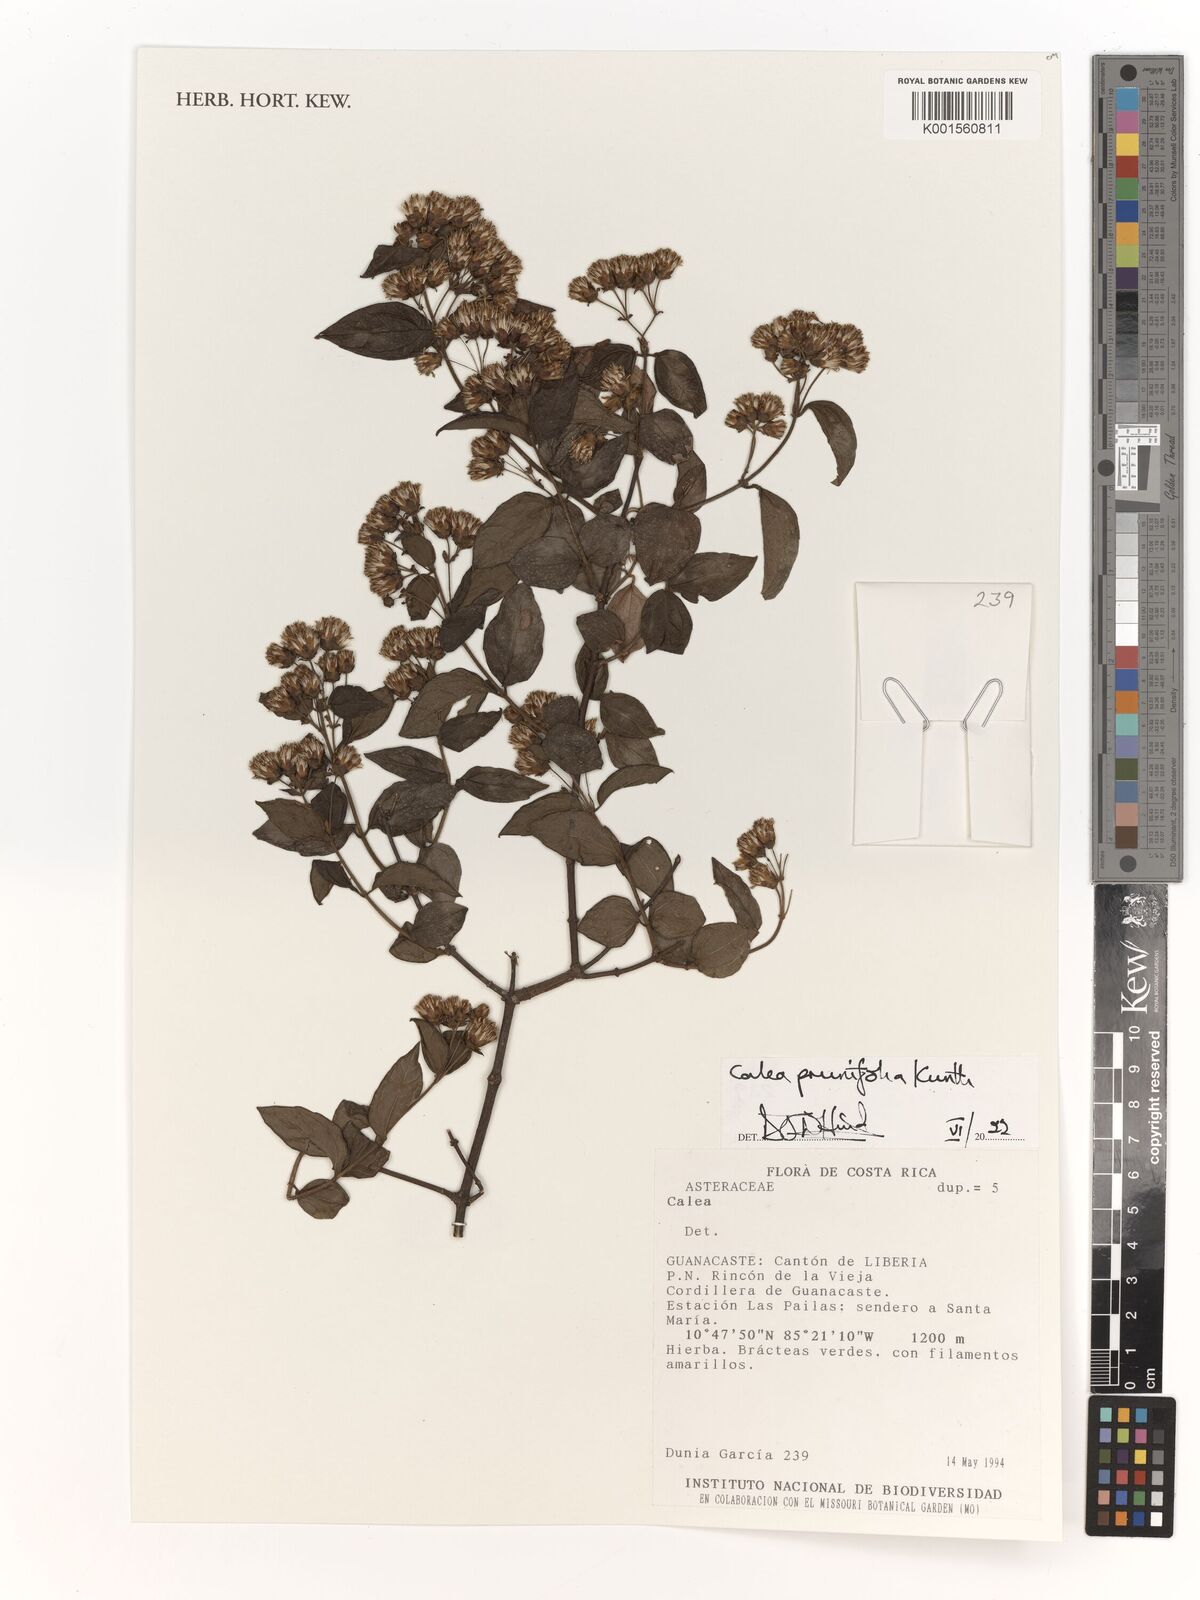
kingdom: Plantae
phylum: Tracheophyta
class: Magnoliopsida
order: Asterales
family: Asteraceae
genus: Calea
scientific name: Calea prunifolia
